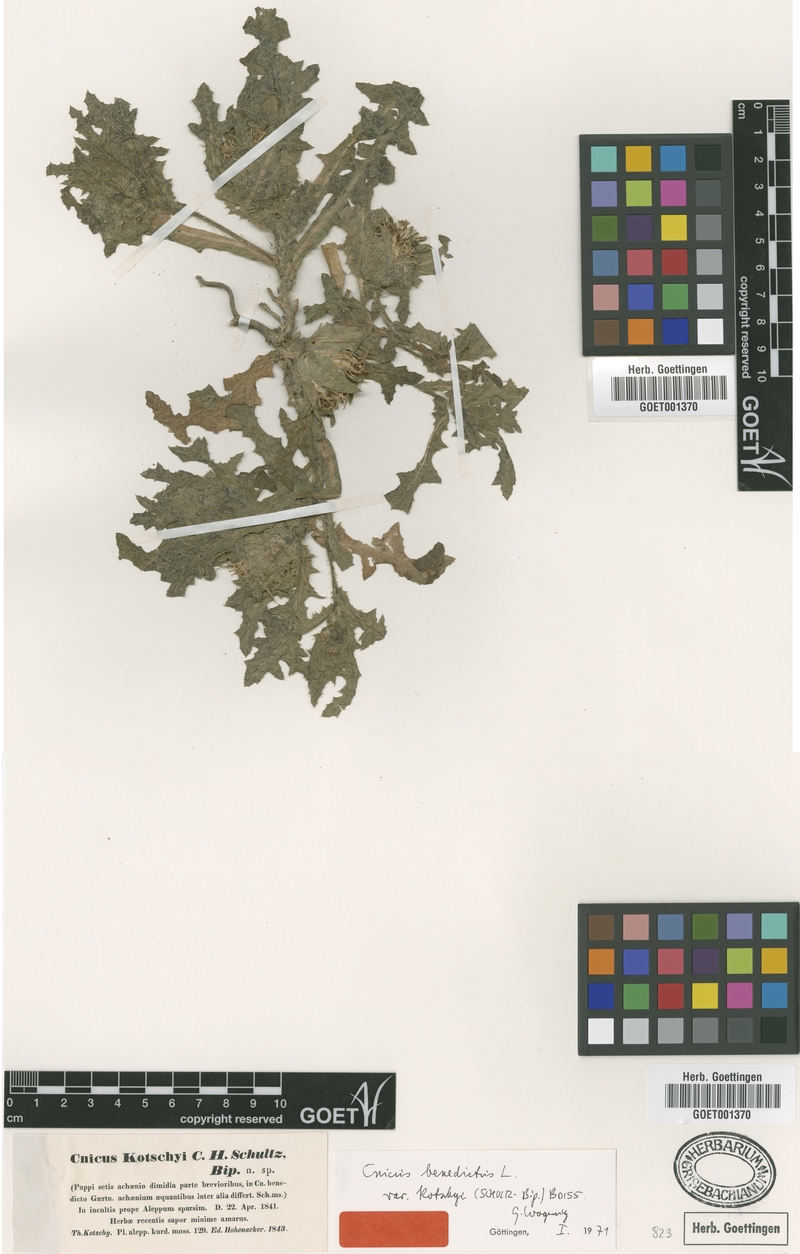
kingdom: Plantae
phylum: Tracheophyta
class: Magnoliopsida
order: Asterales
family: Asteraceae
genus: Centaurea
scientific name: Centaurea benedicta
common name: Blessed thistle
